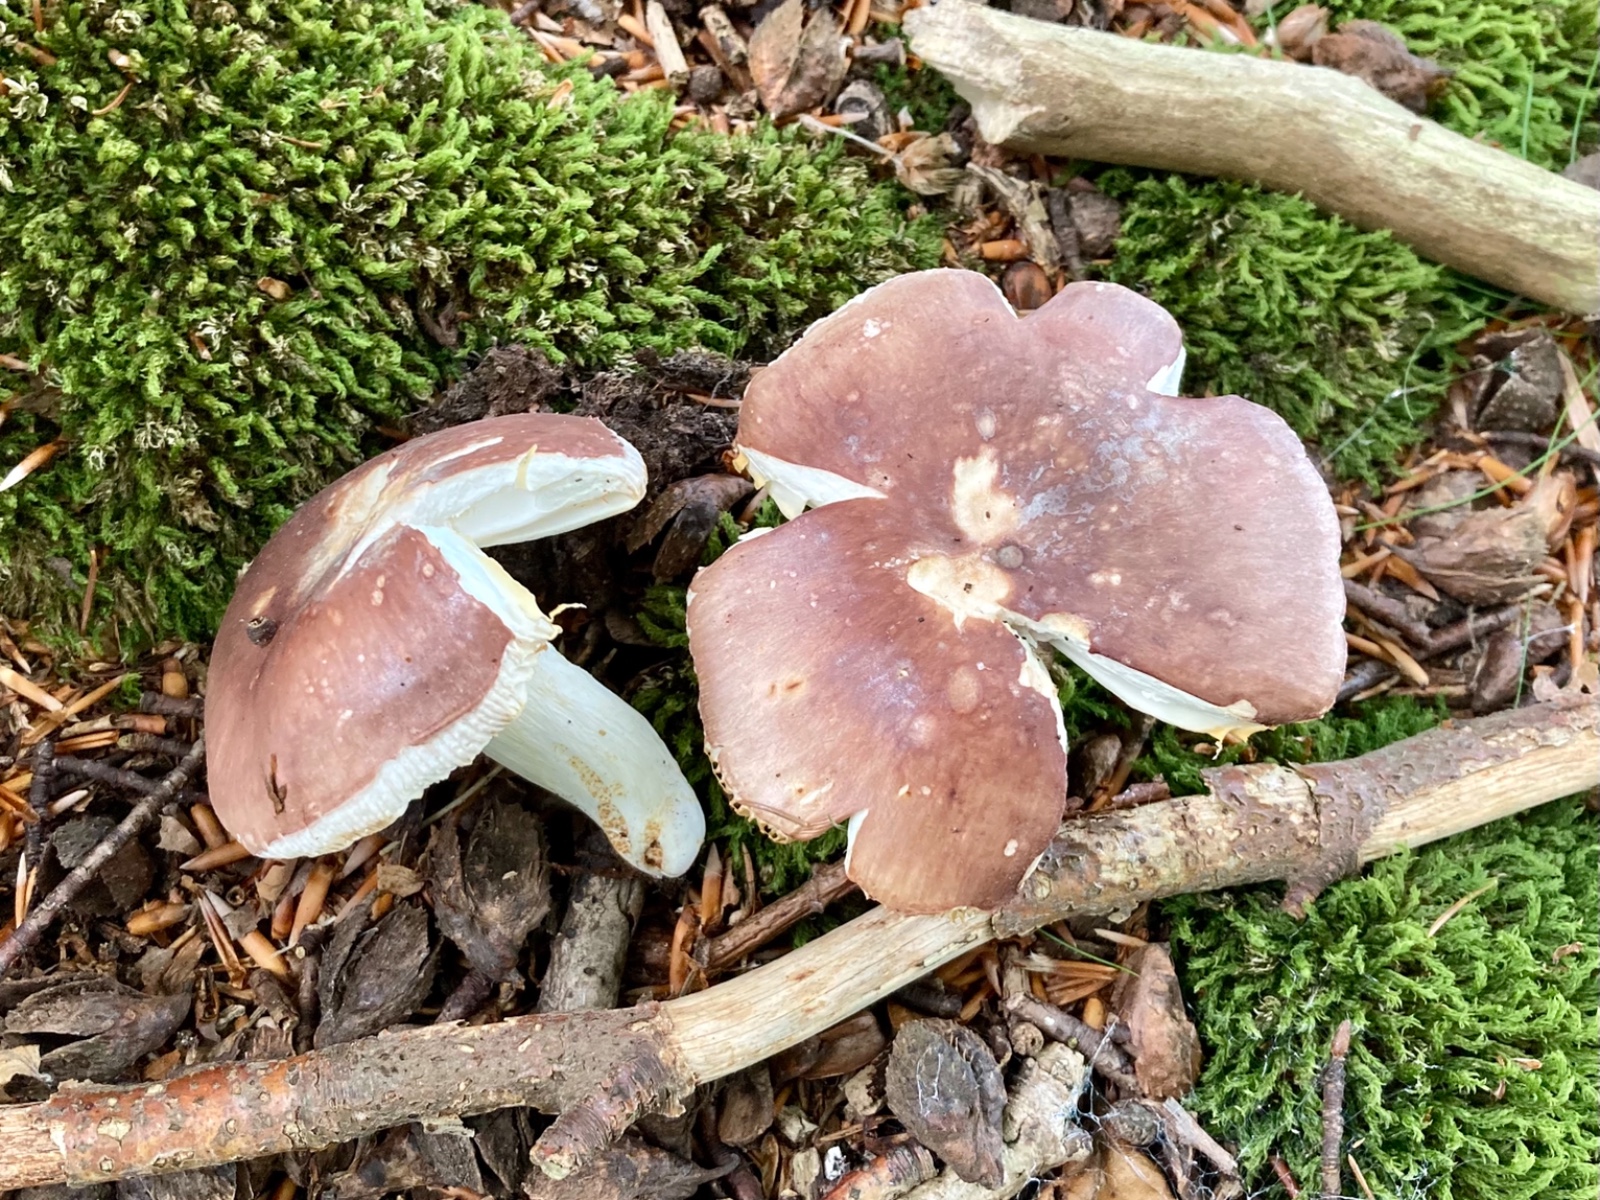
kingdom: Fungi
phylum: Basidiomycota
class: Agaricomycetes
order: Russulales
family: Russulaceae
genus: Russula
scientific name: Russula vesca
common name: spiselig skørhat
